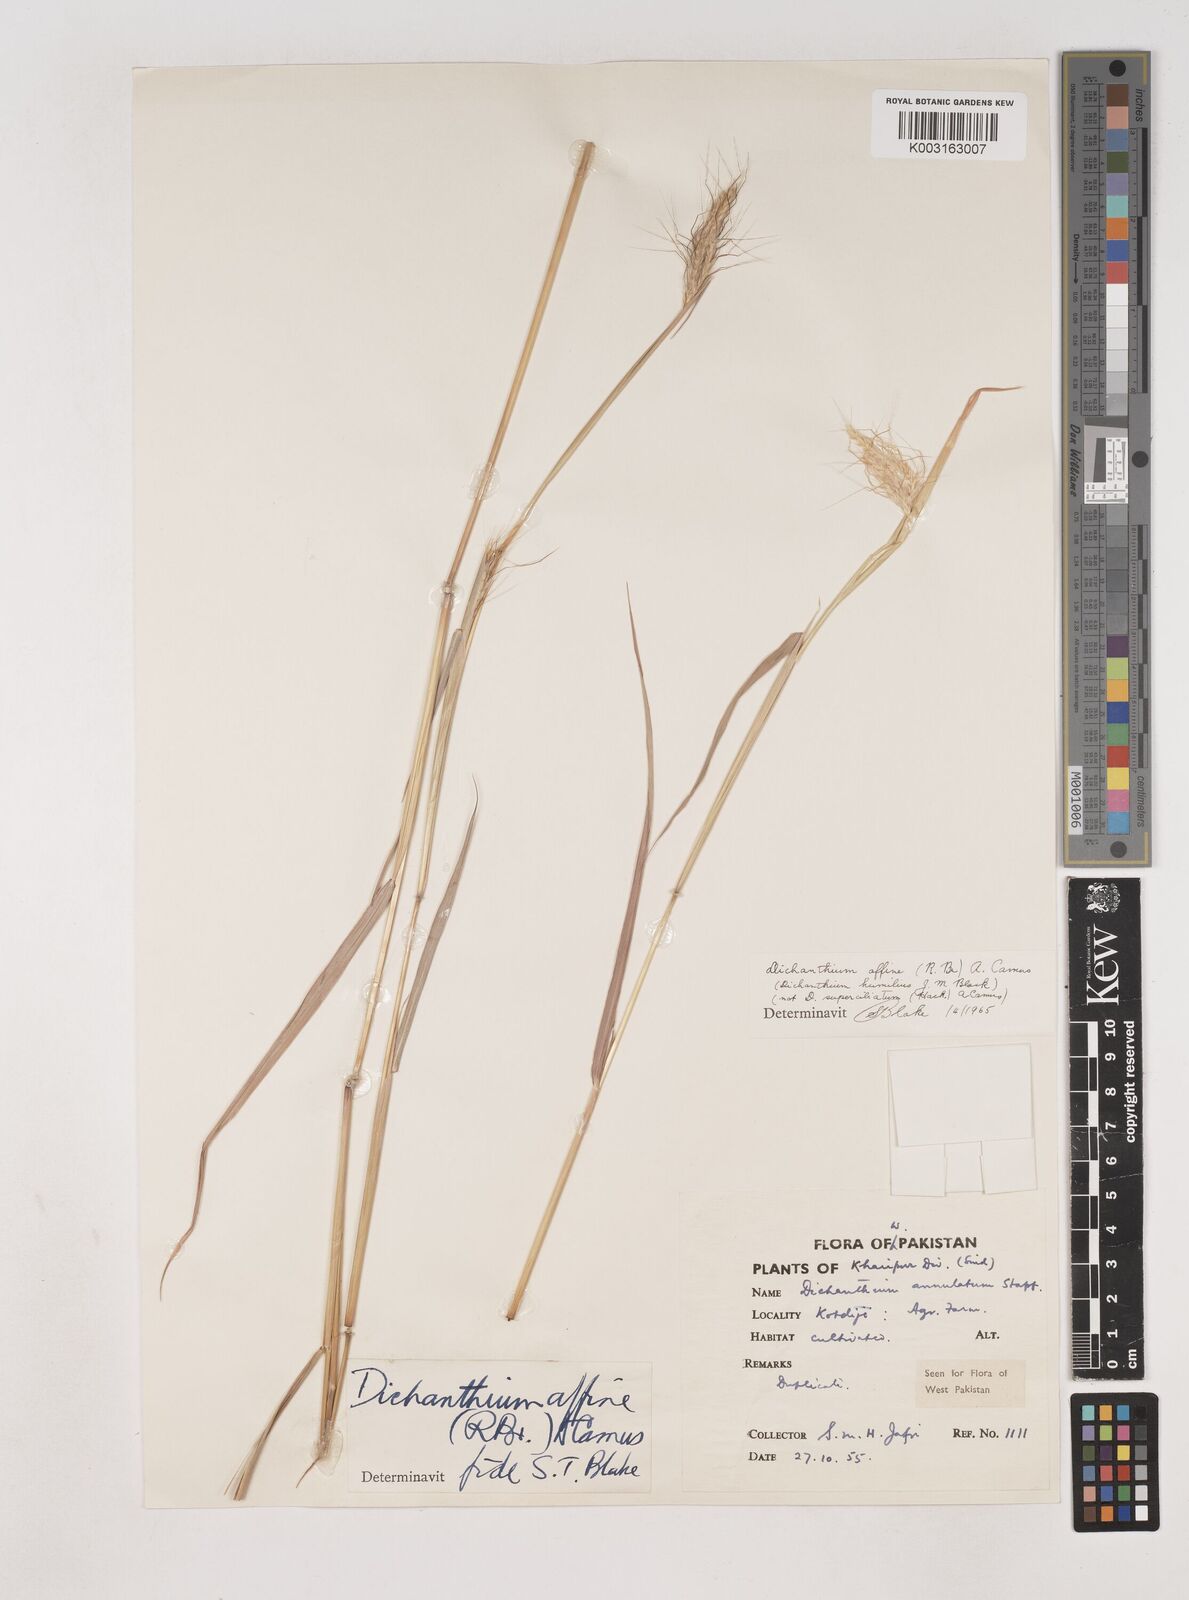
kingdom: Plantae
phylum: Tracheophyta
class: Liliopsida
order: Poales
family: Poaceae
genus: Dichanthium
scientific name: Dichanthium sericeum
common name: Silky bluestem
